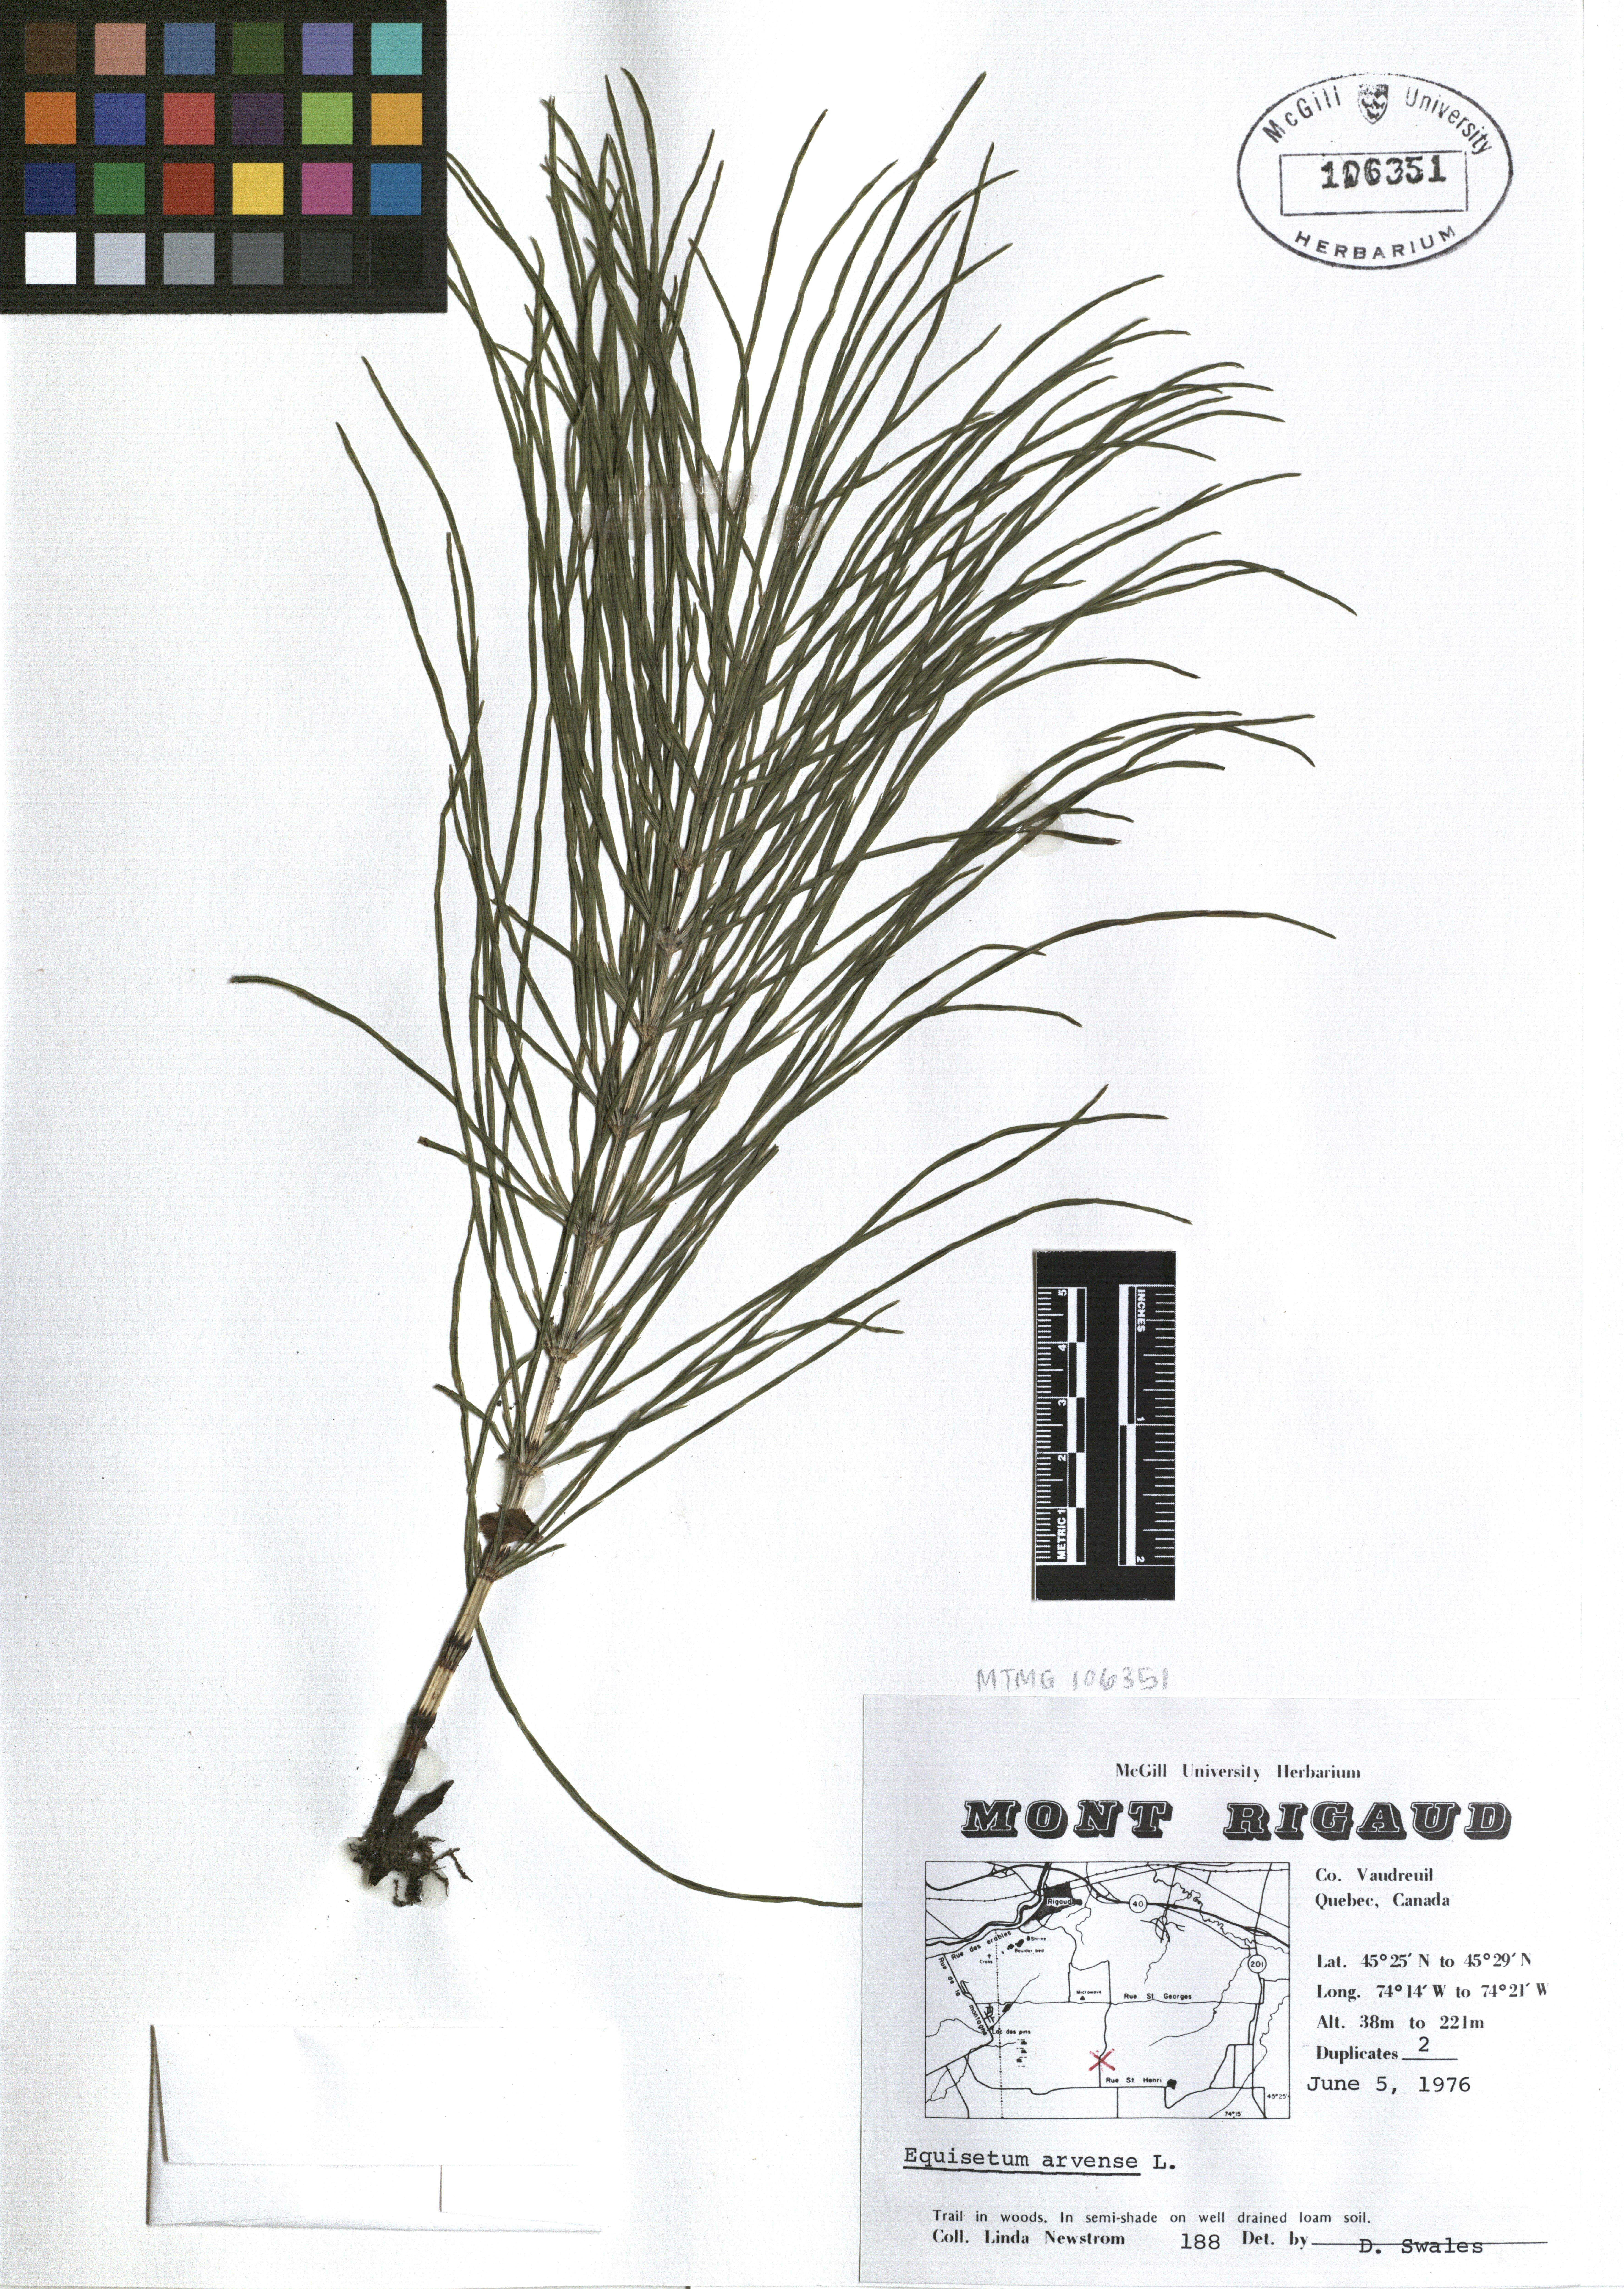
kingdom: Plantae
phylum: Tracheophyta
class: Polypodiopsida
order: Equisetales
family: Equisetaceae
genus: Equisetum
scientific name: Equisetum arvense
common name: Field horsetail
